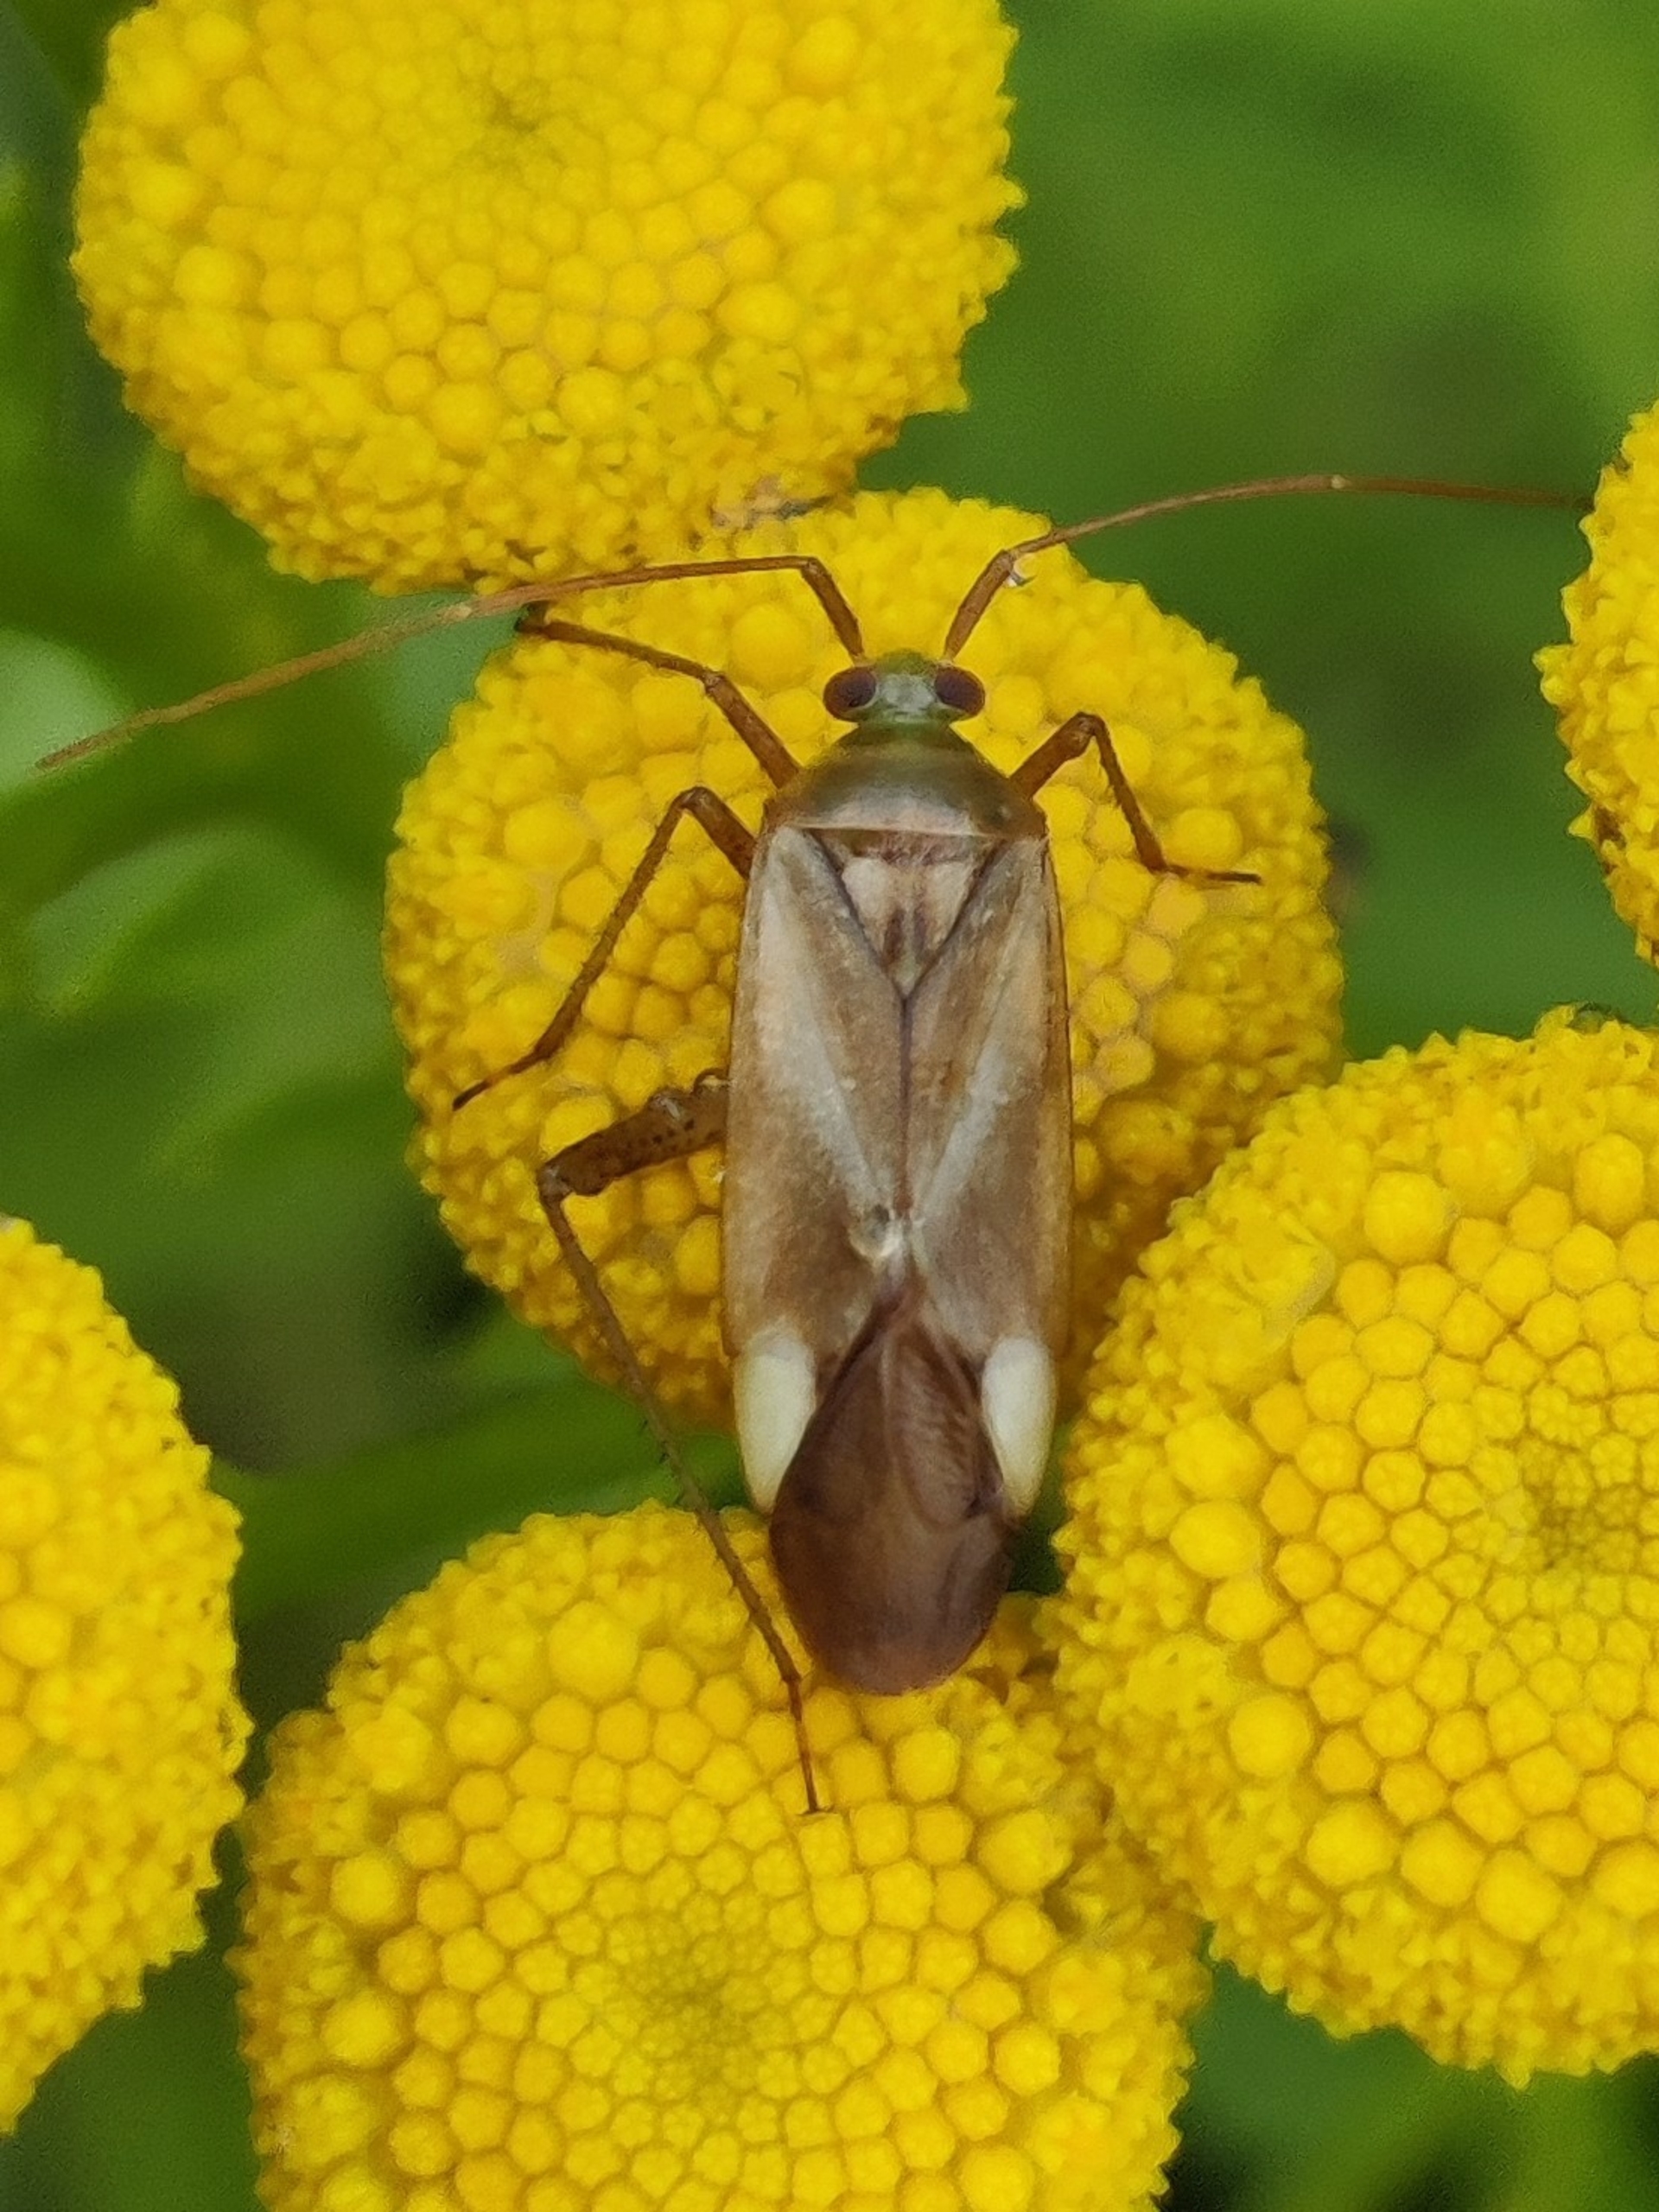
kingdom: Animalia
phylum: Arthropoda
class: Insecta
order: Hemiptera
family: Miridae
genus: Adelphocoris
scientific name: Adelphocoris lineolatus
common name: Lucernetæge
